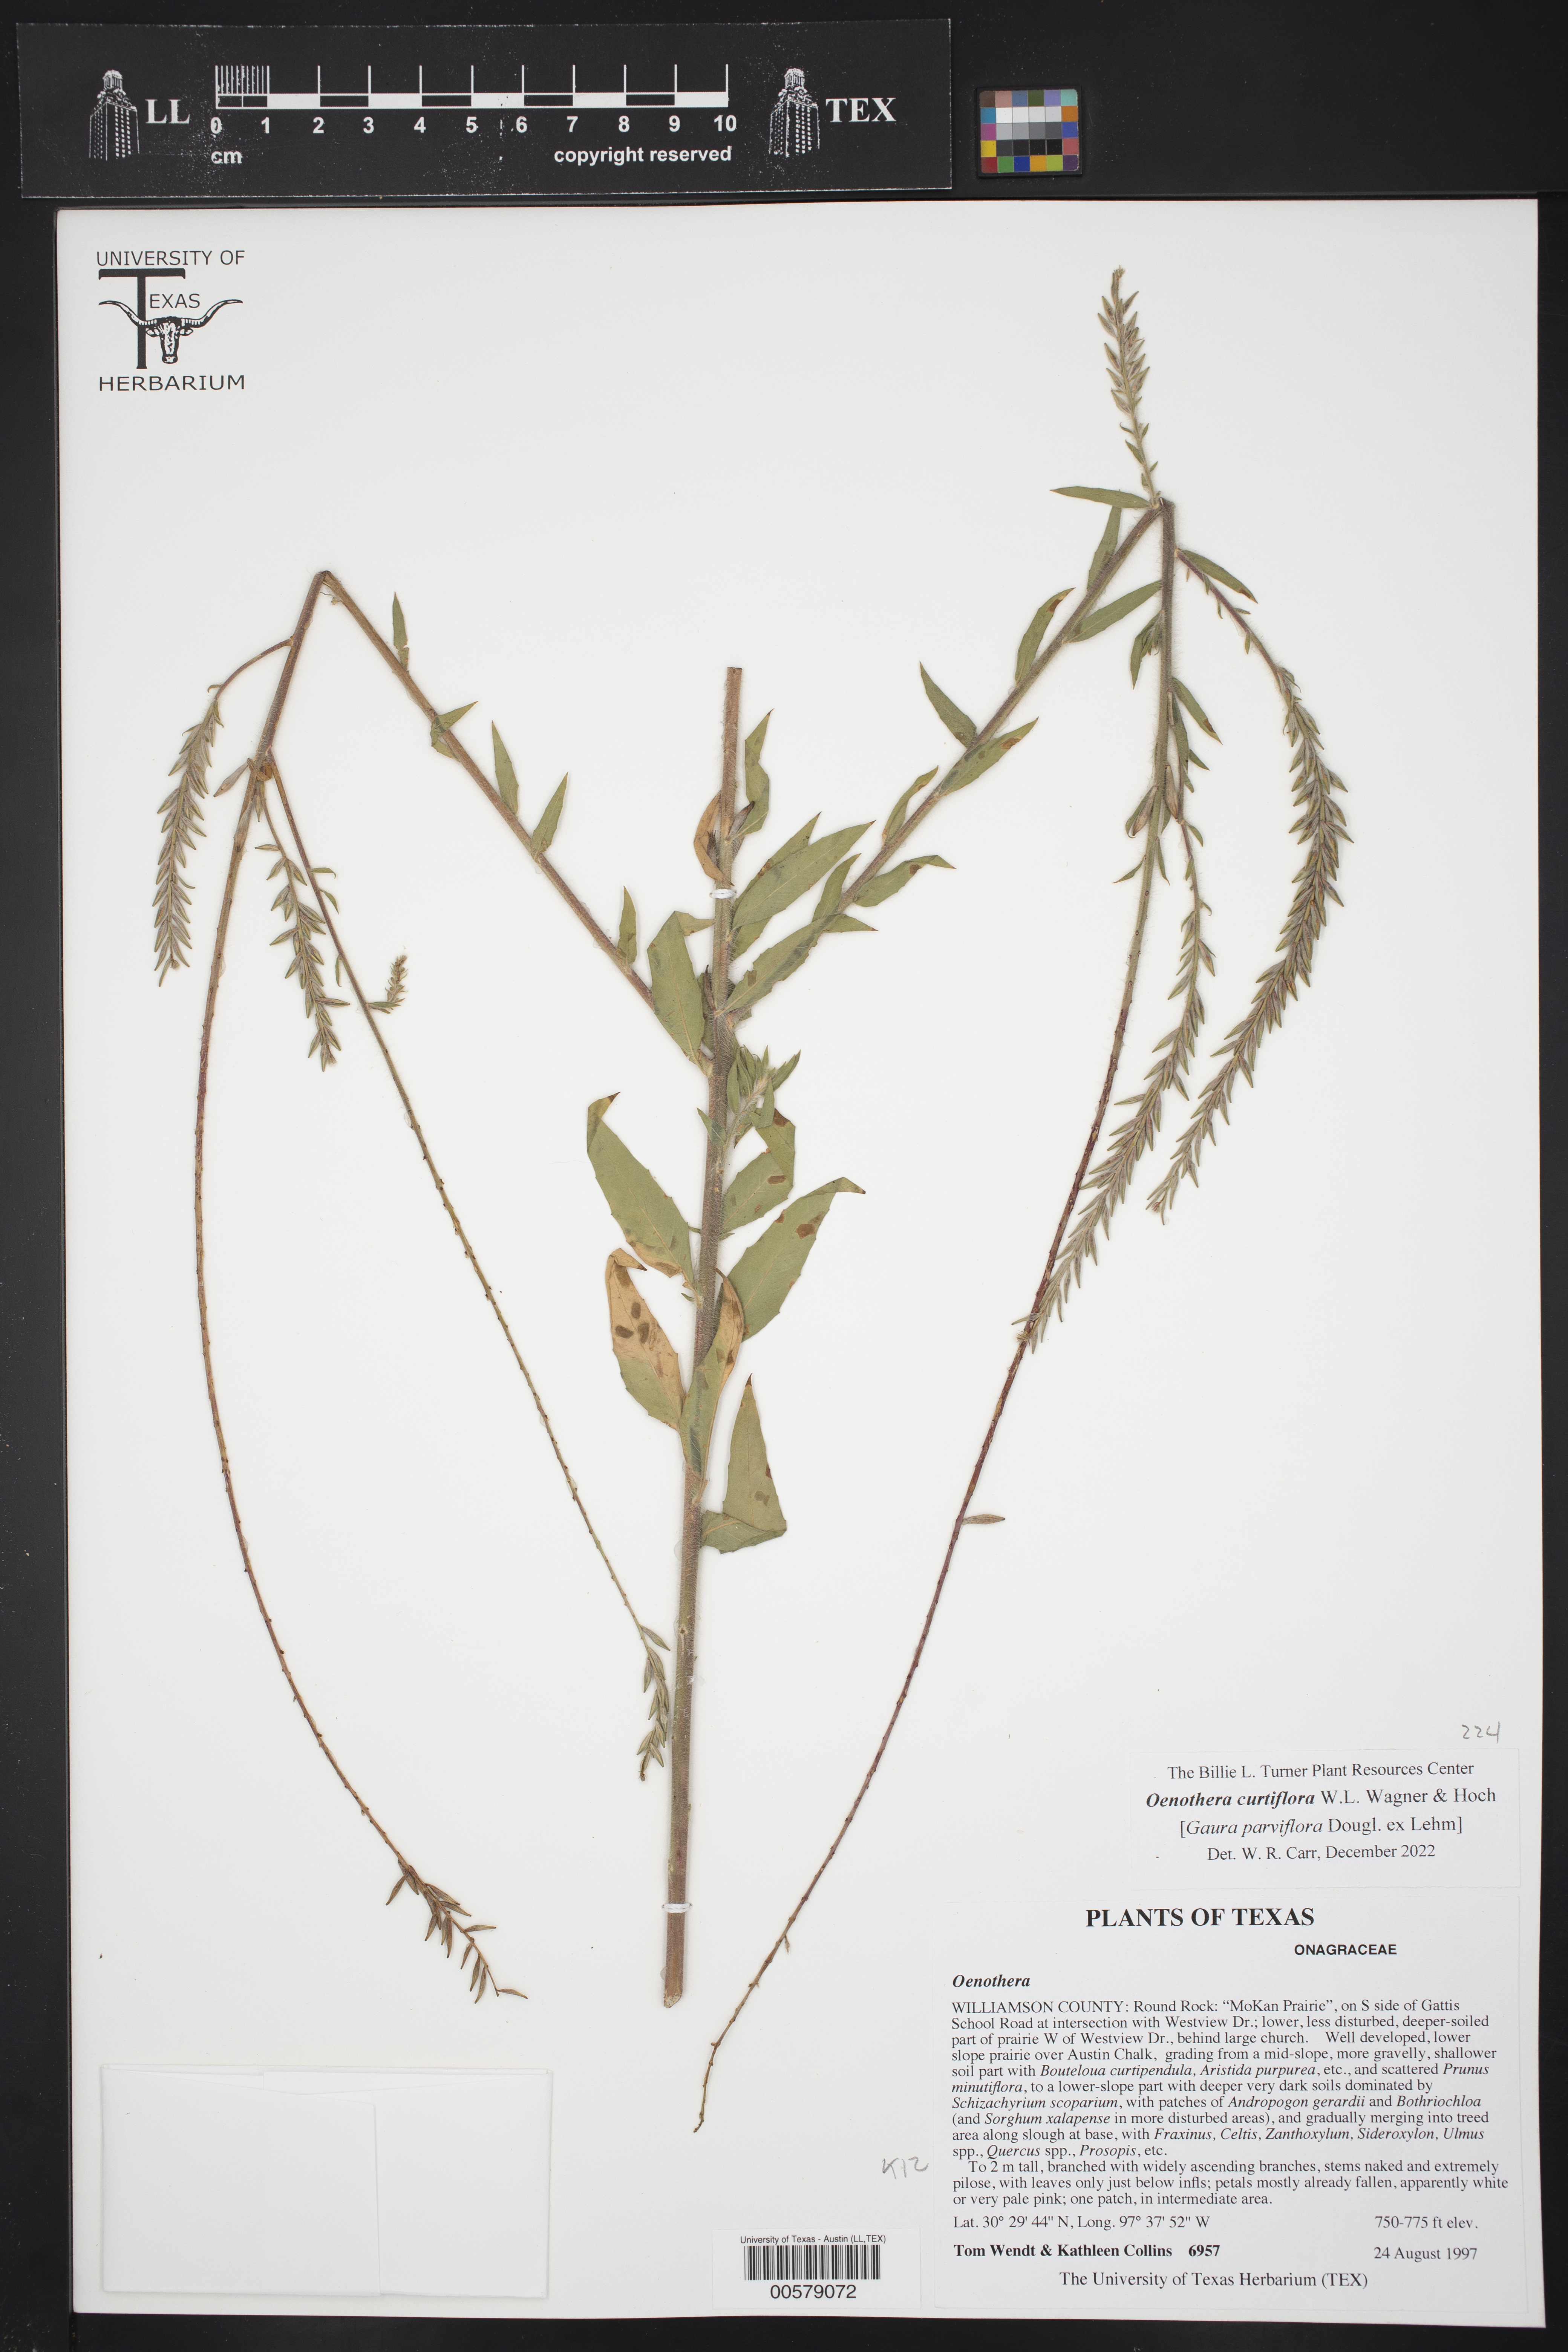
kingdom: Plantae
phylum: Tracheophyta
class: Magnoliopsida
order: Myrtales
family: Onagraceae
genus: Oenothera
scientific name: Oenothera curtiflora
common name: Velvetweed
